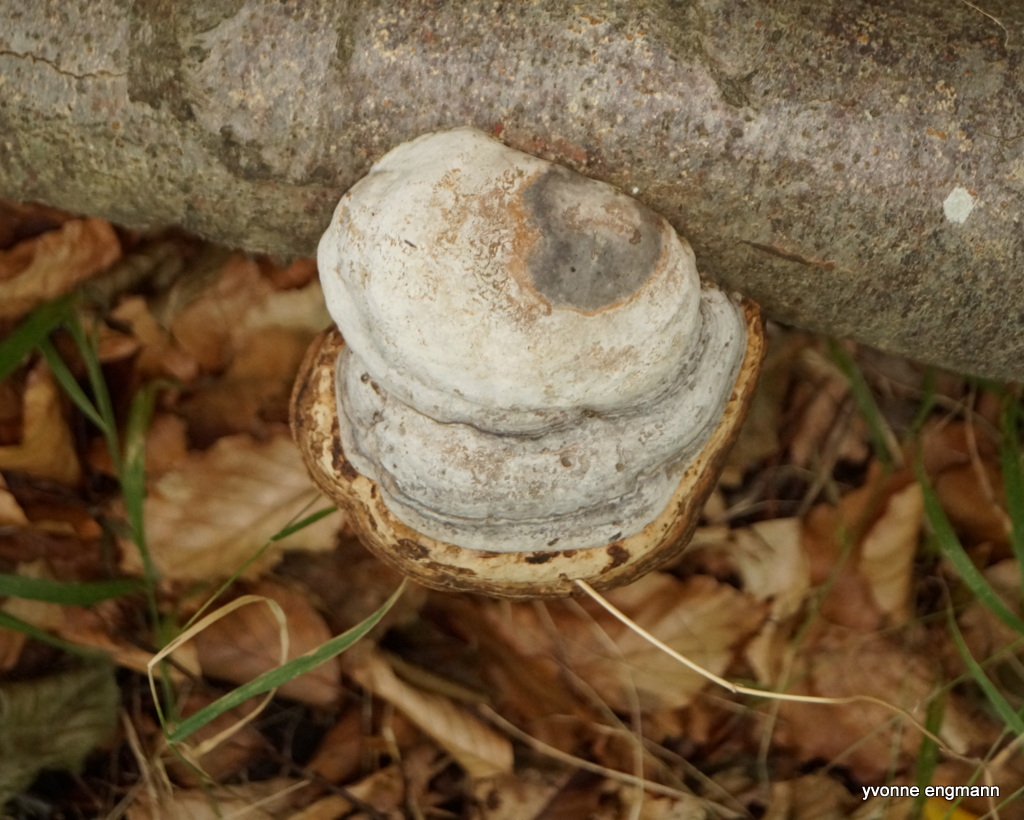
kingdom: Fungi
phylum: Basidiomycota
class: Agaricomycetes
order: Polyporales
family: Polyporaceae
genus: Fomes
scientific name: Fomes fomentarius
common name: tøndersvamp
